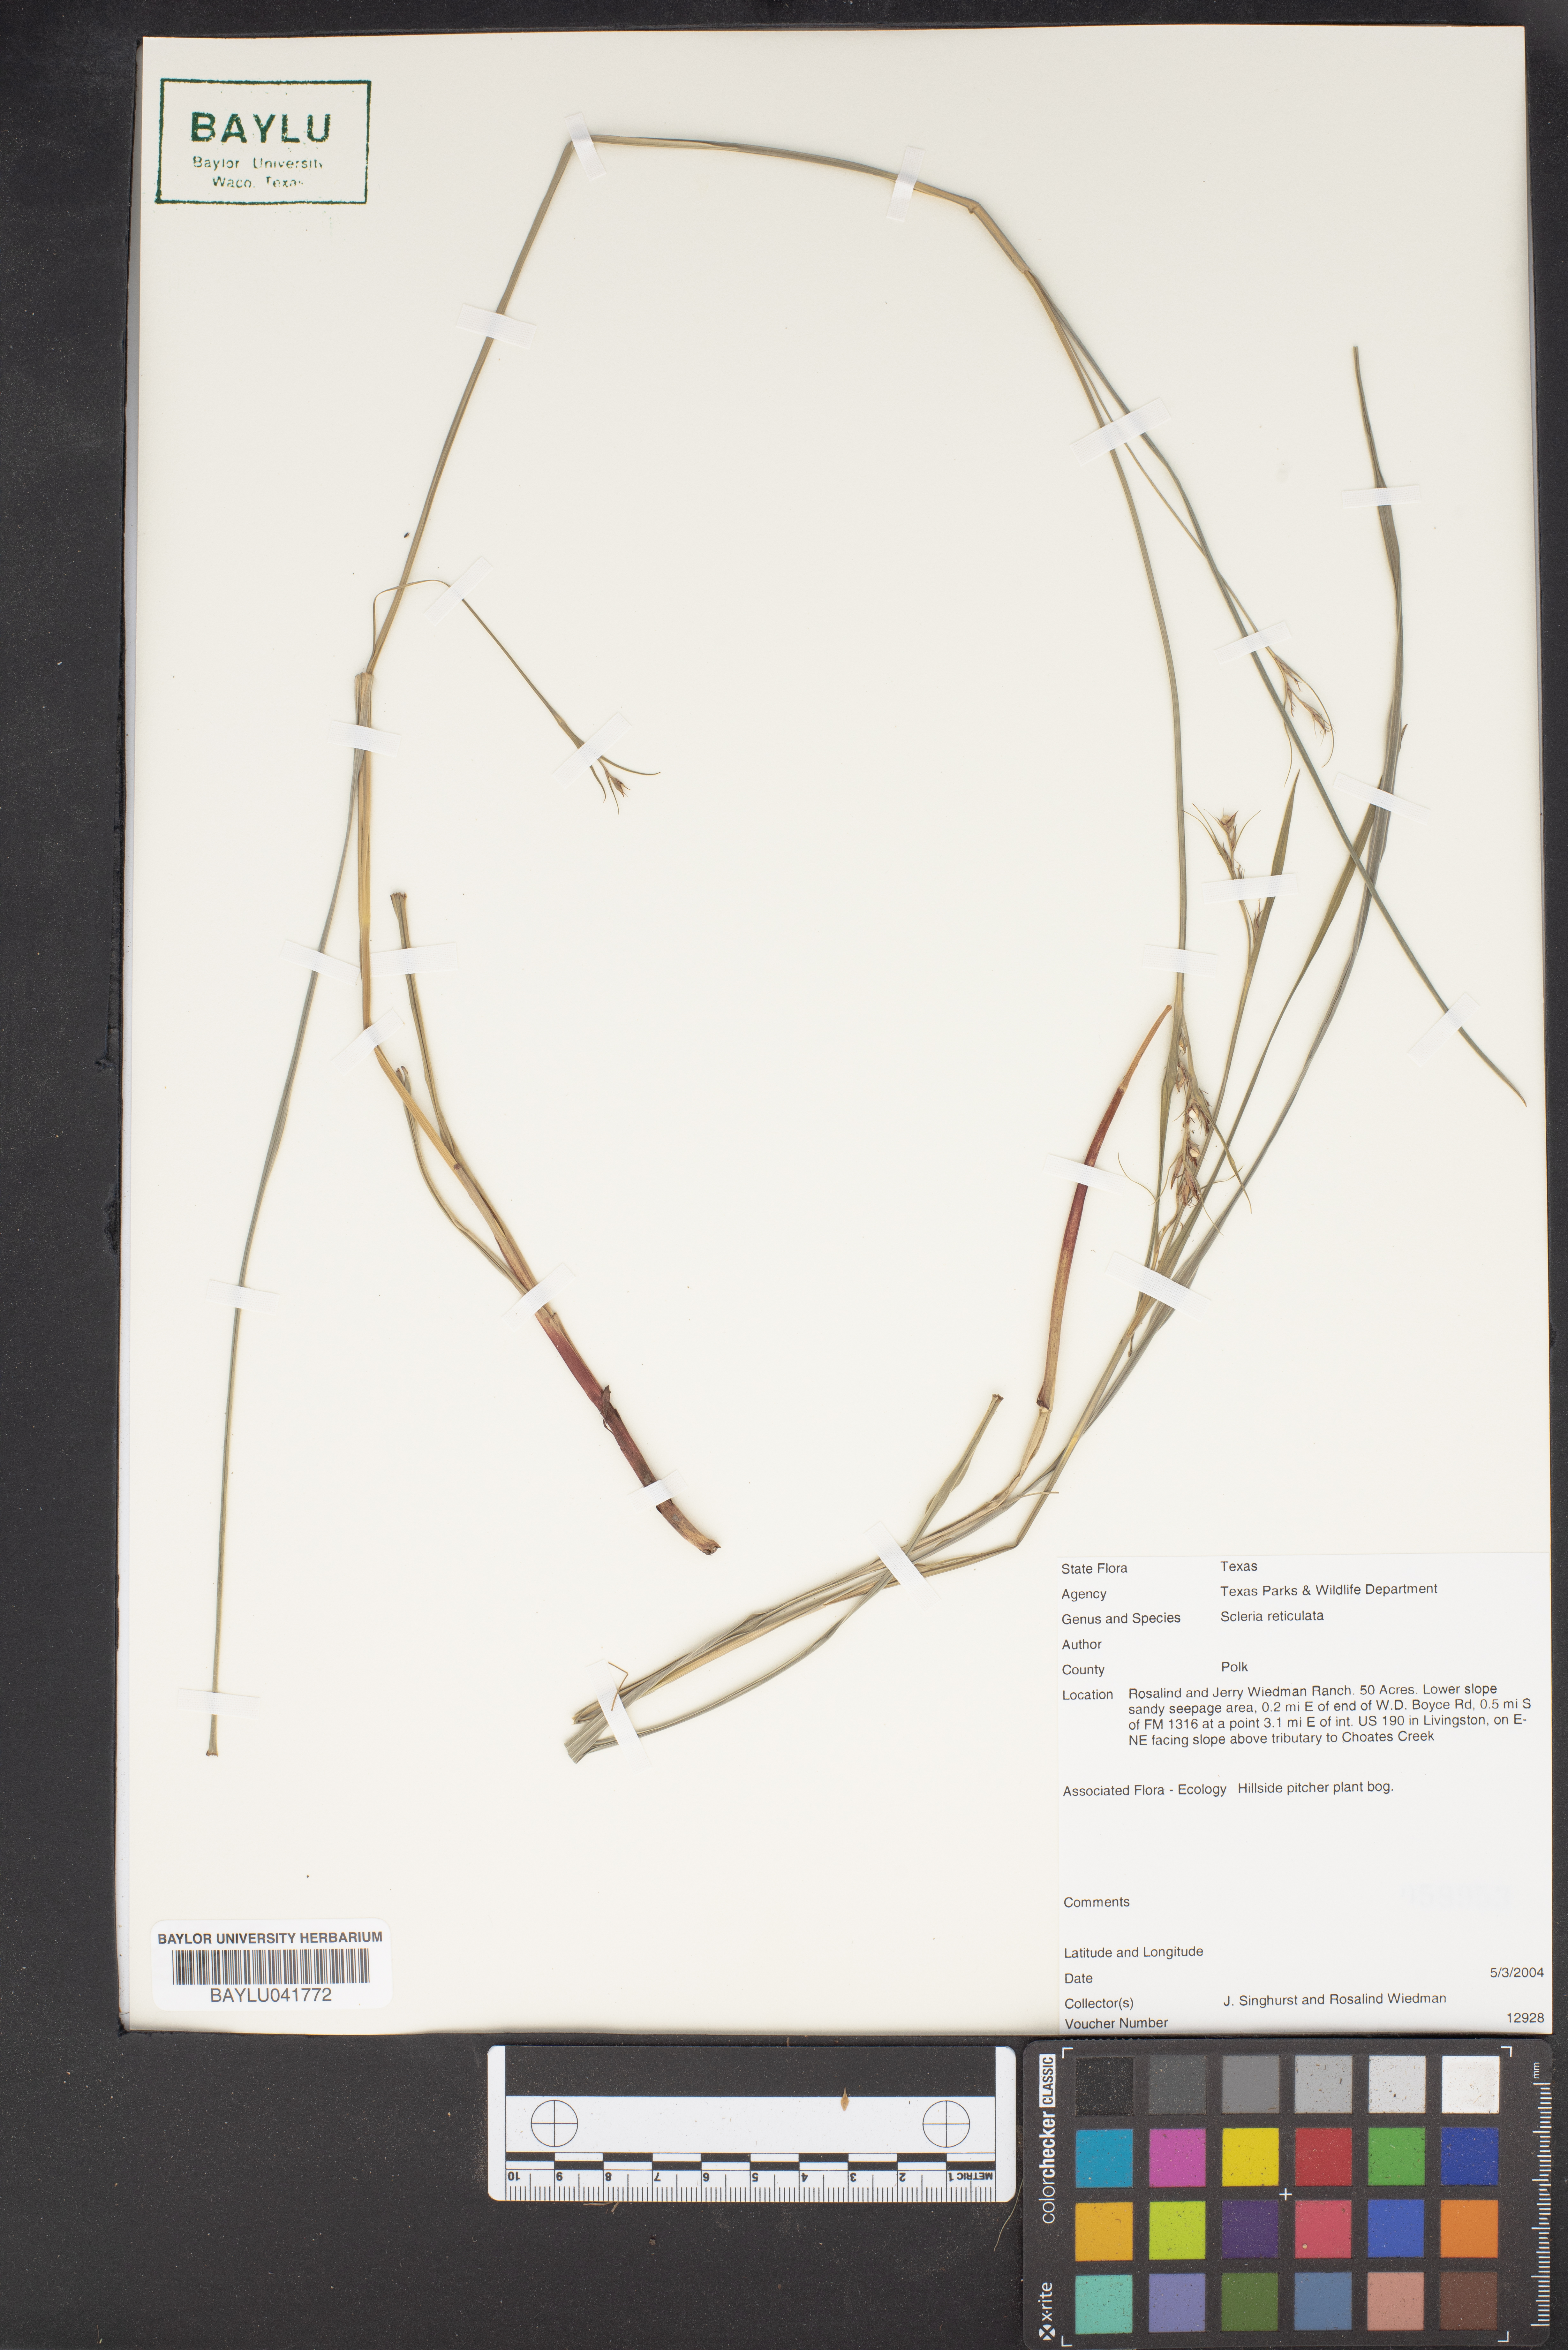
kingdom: Plantae
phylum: Tracheophyta
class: Liliopsida
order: Poales
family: Cyperaceae
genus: Diplacrum
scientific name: Diplacrum reticulatum
